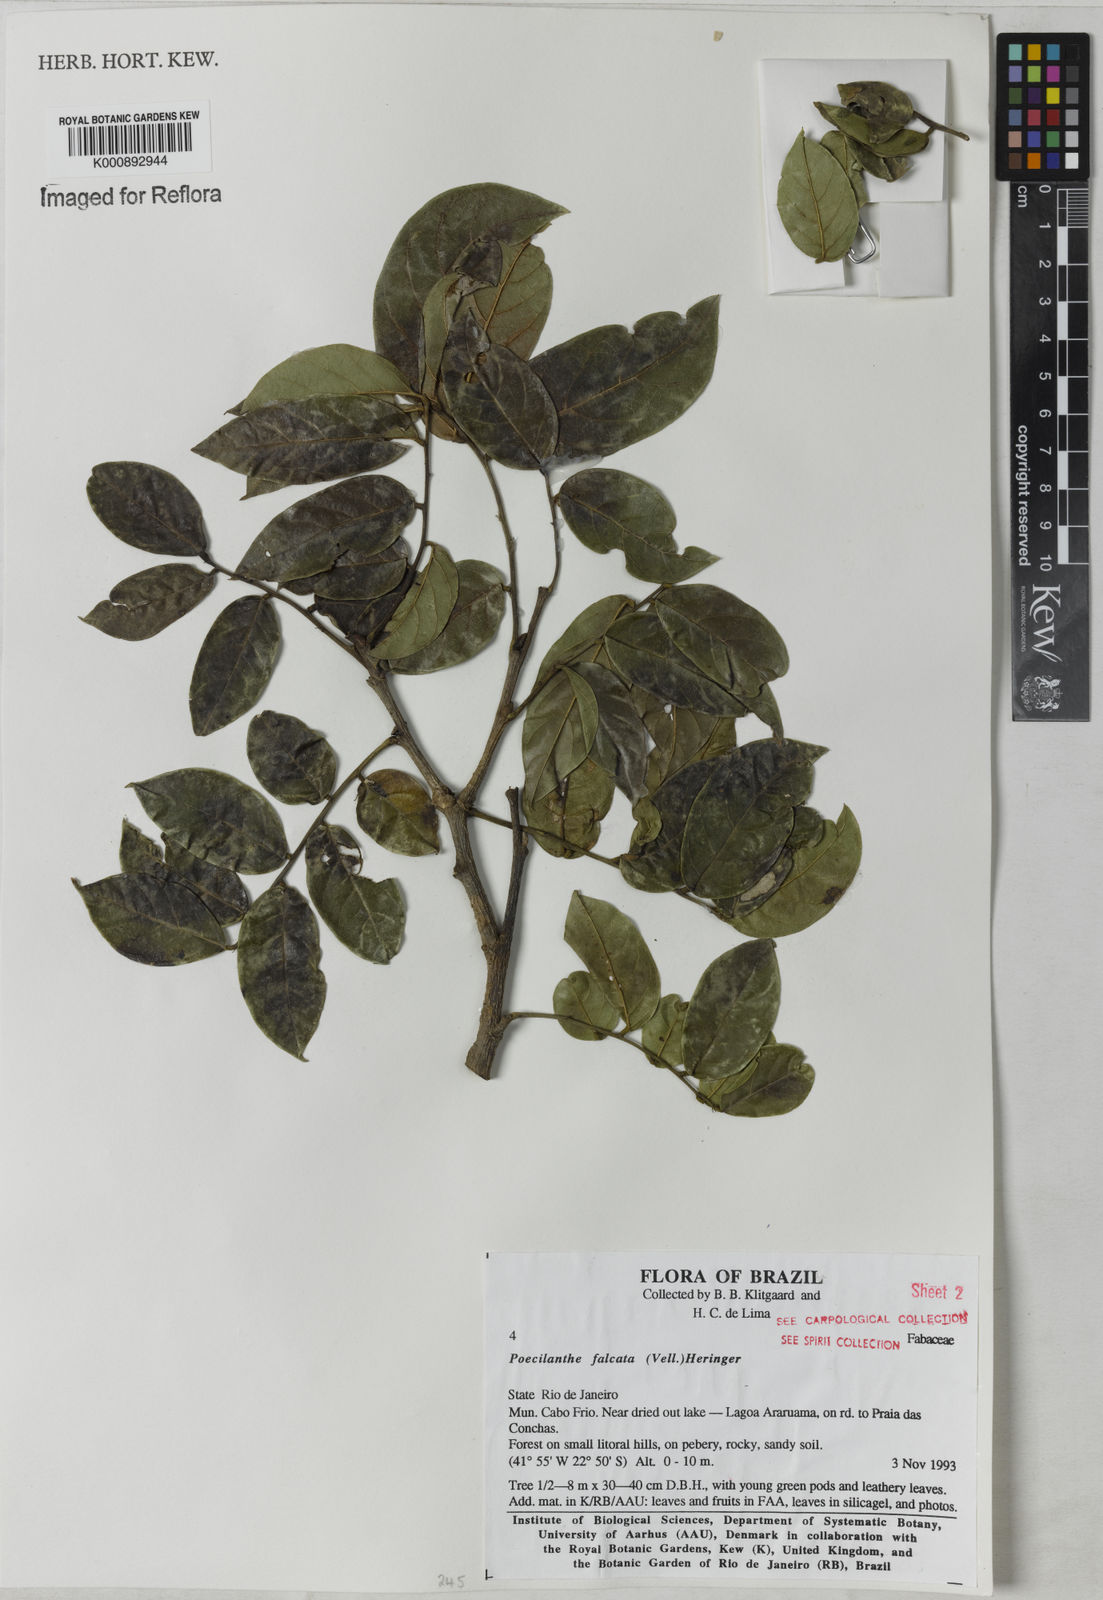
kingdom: Plantae
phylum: Tracheophyta
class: Magnoliopsida
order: Fabales
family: Fabaceae
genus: Poecilanthe
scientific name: Poecilanthe falcata
